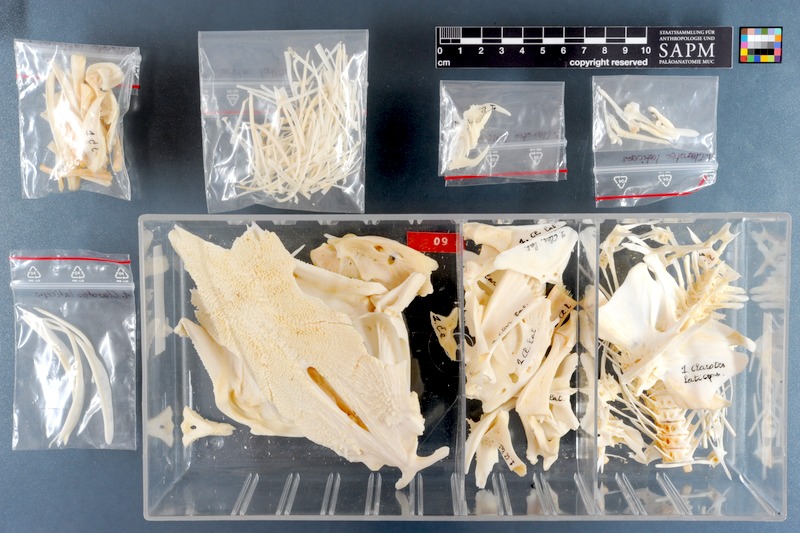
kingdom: Animalia
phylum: Chordata
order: Siluriformes
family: Claroteidae
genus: Clarotes
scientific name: Clarotes laticeps
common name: Spiny catfish
